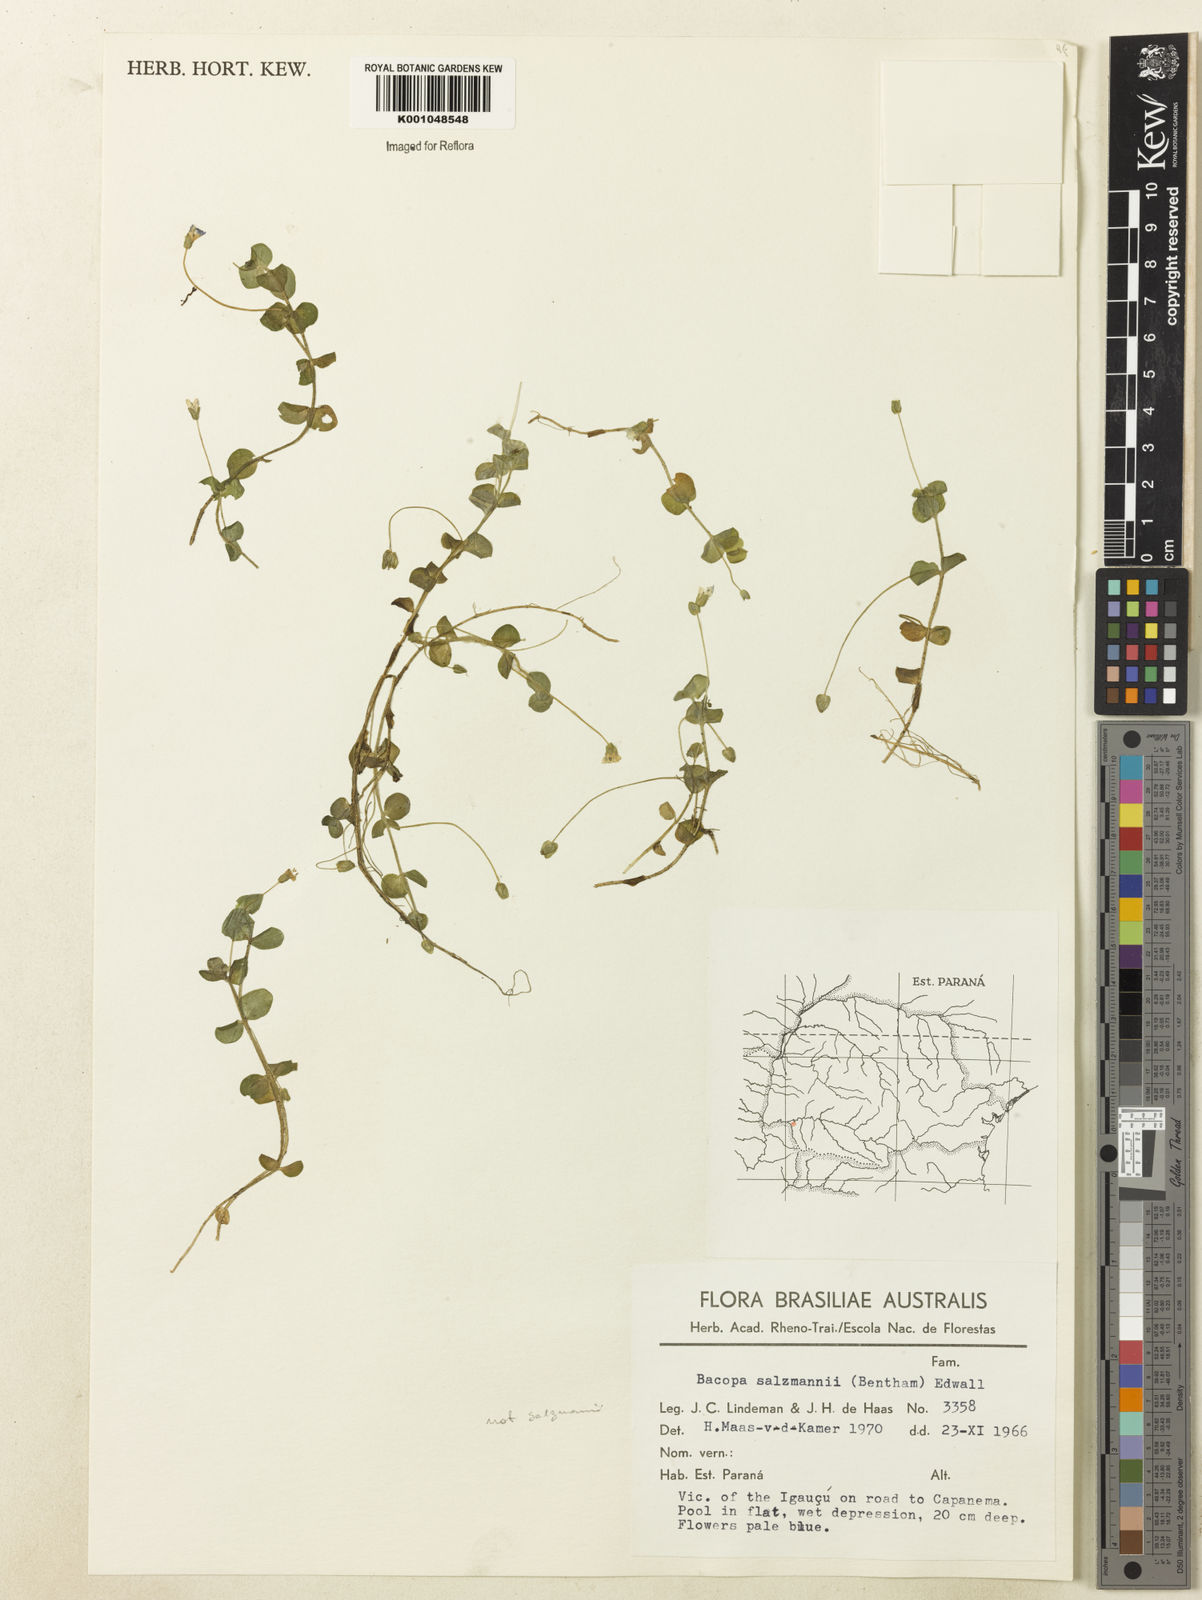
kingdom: Plantae
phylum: Tracheophyta
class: Magnoliopsida
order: Lamiales
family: Plantaginaceae
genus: Bacopa
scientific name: Bacopa salzmannii
